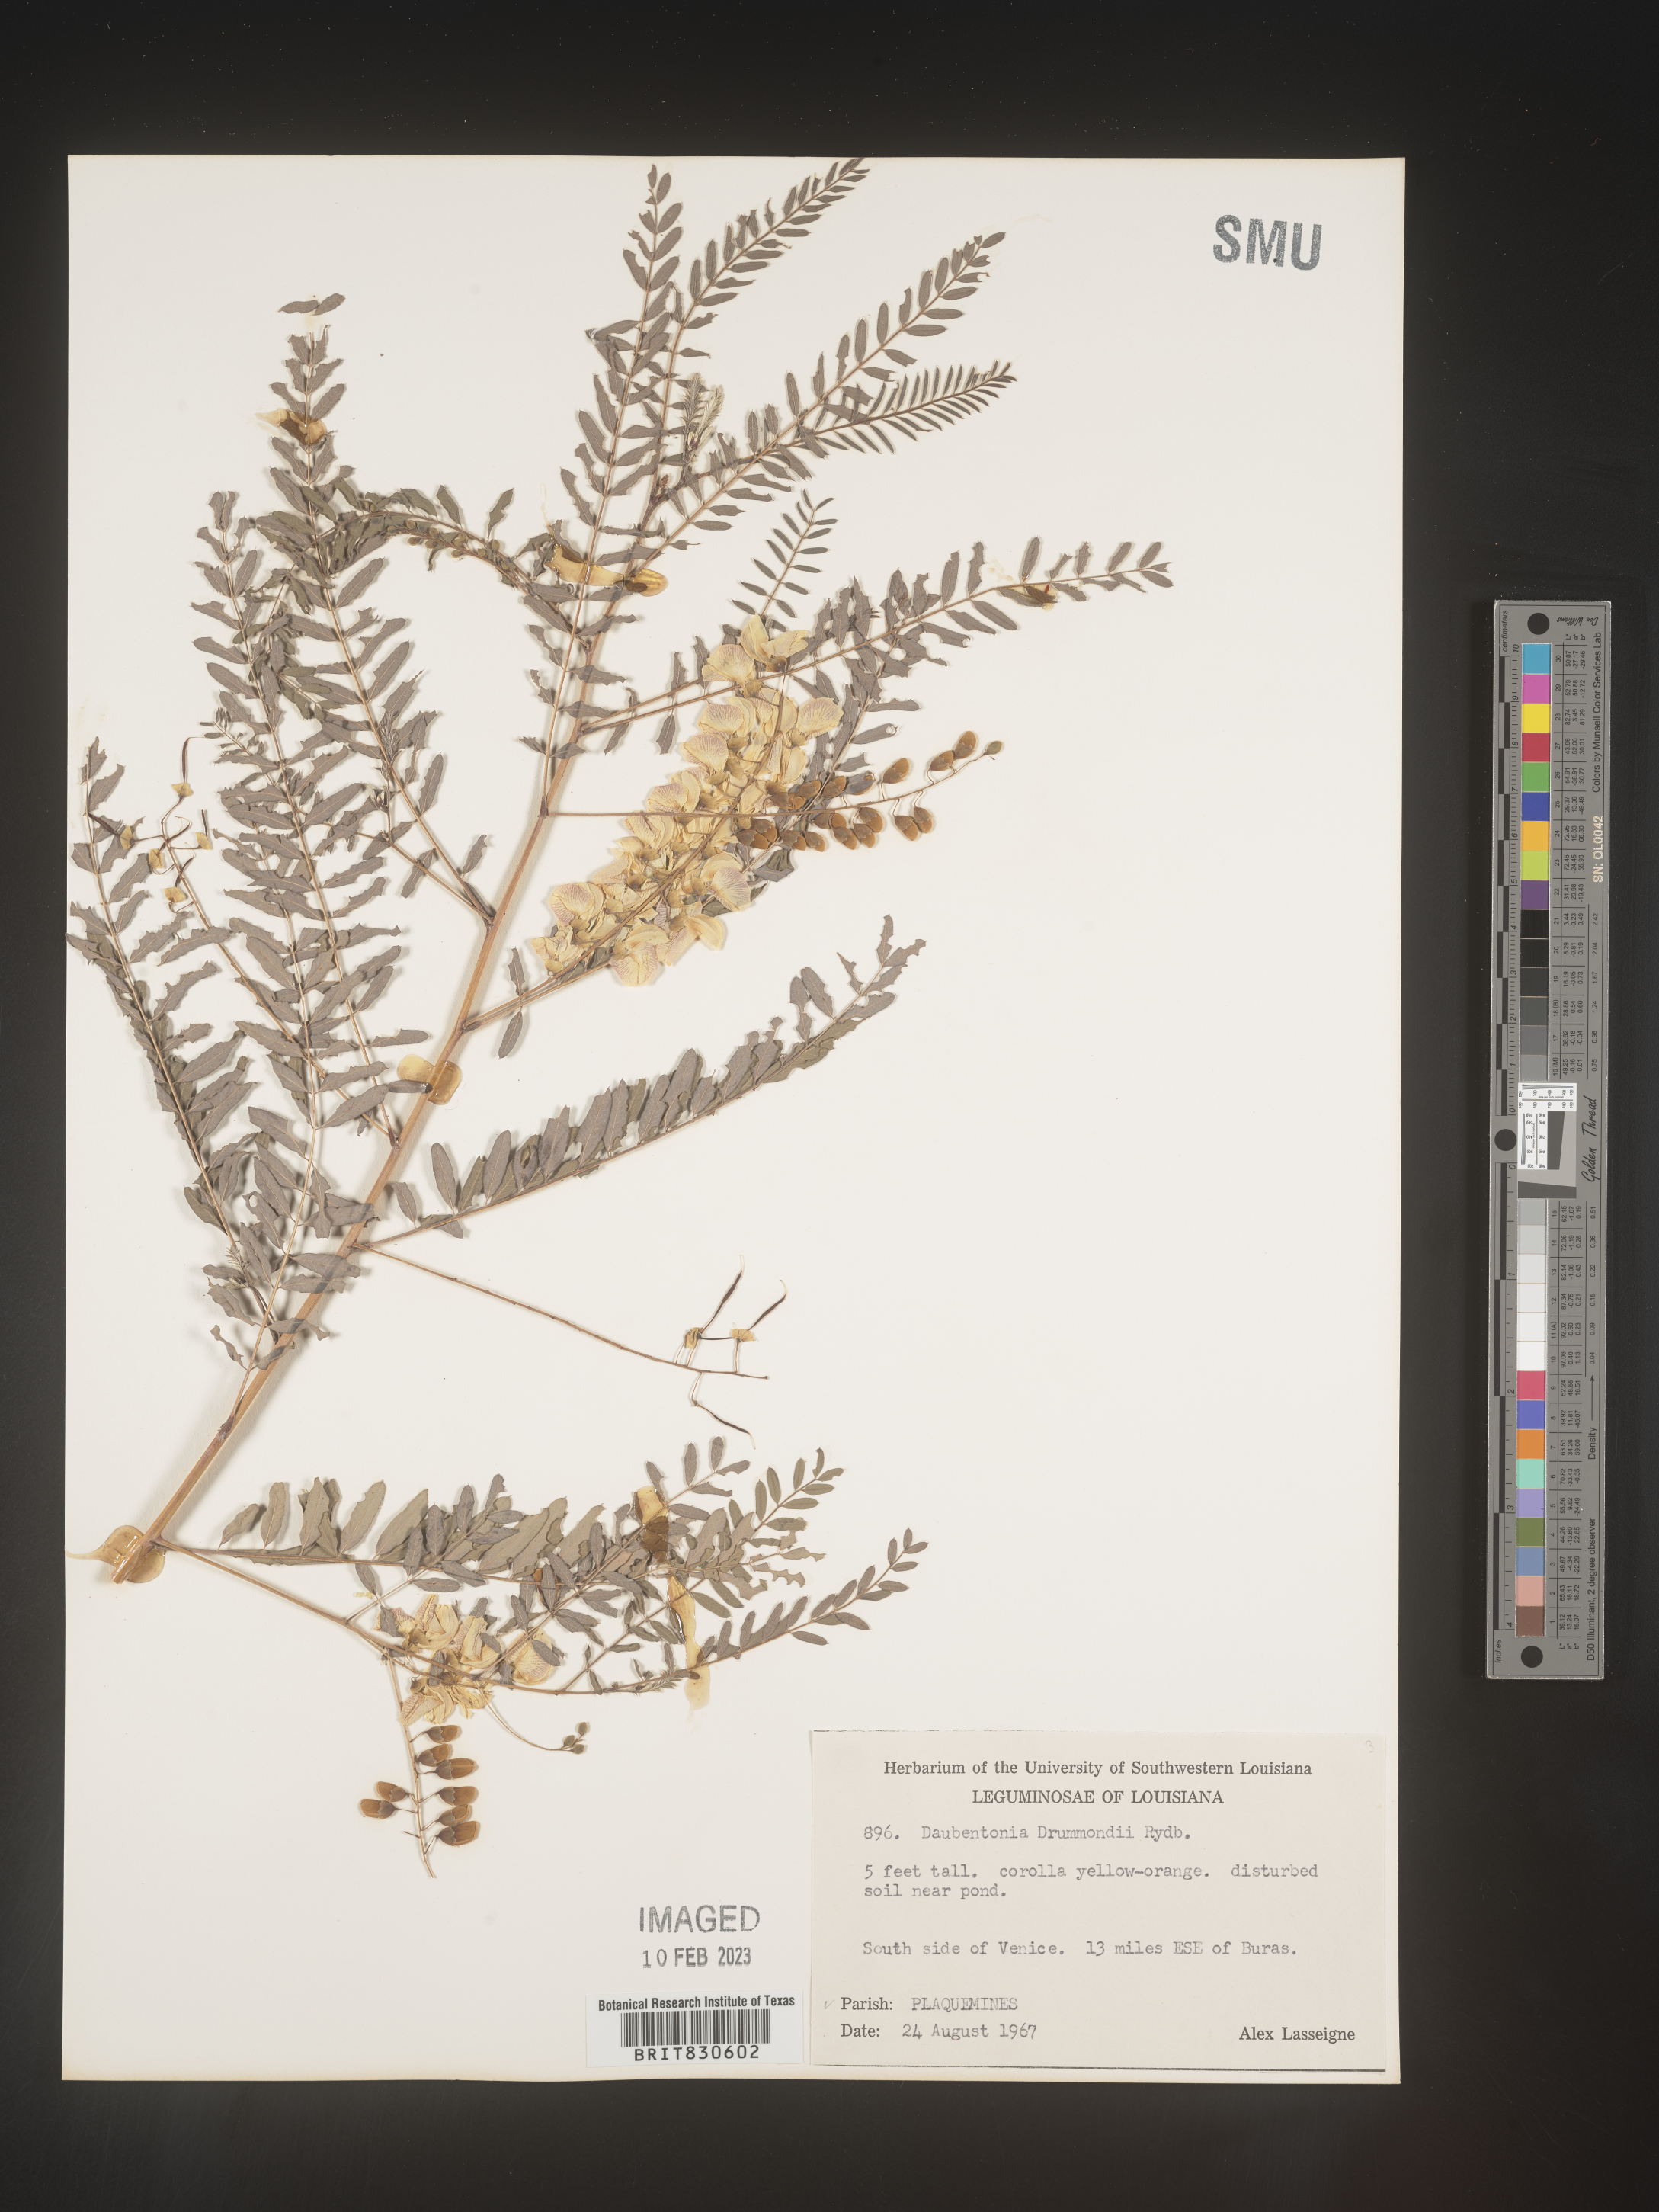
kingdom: Plantae
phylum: Tracheophyta
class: Magnoliopsida
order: Fabales
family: Fabaceae
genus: Sesbania
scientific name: Sesbania drummondii
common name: Poison-bean
